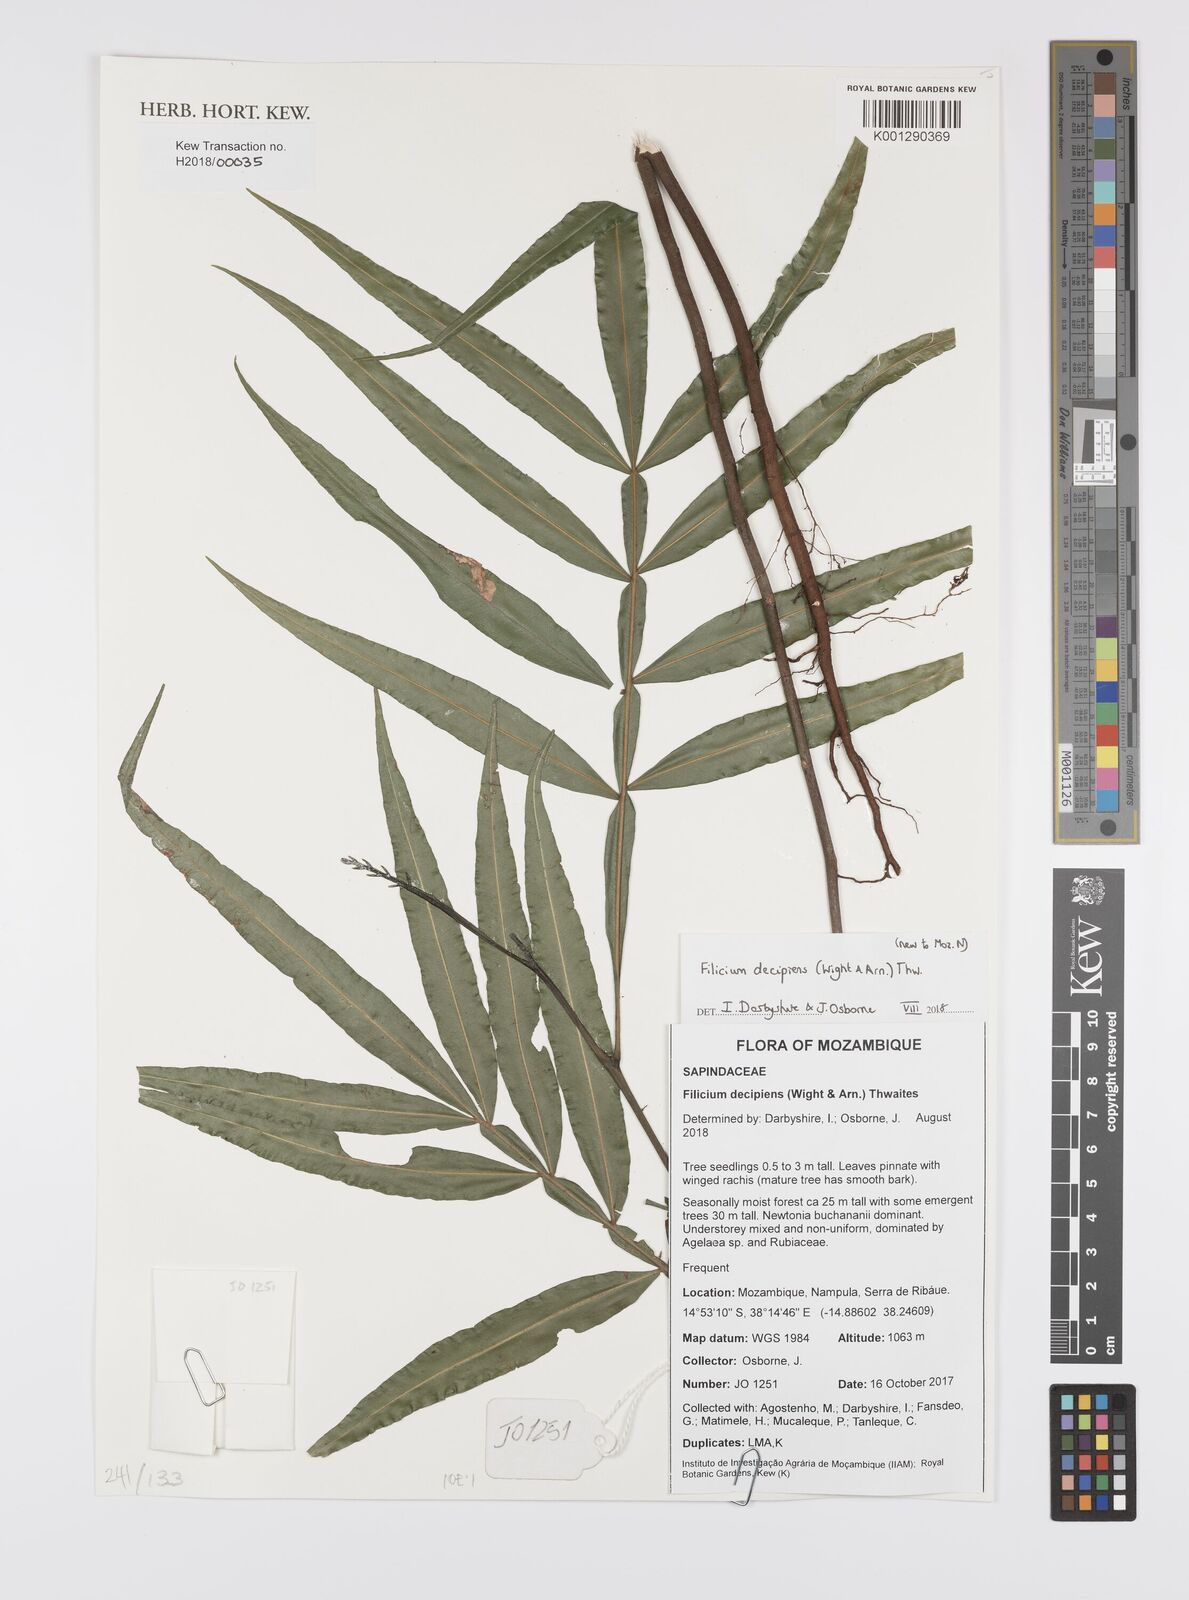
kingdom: Plantae
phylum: Tracheophyta
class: Magnoliopsida
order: Sapindales
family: Sapindaceae
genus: Filicium
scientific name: Filicium decipiens
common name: Ferntree
